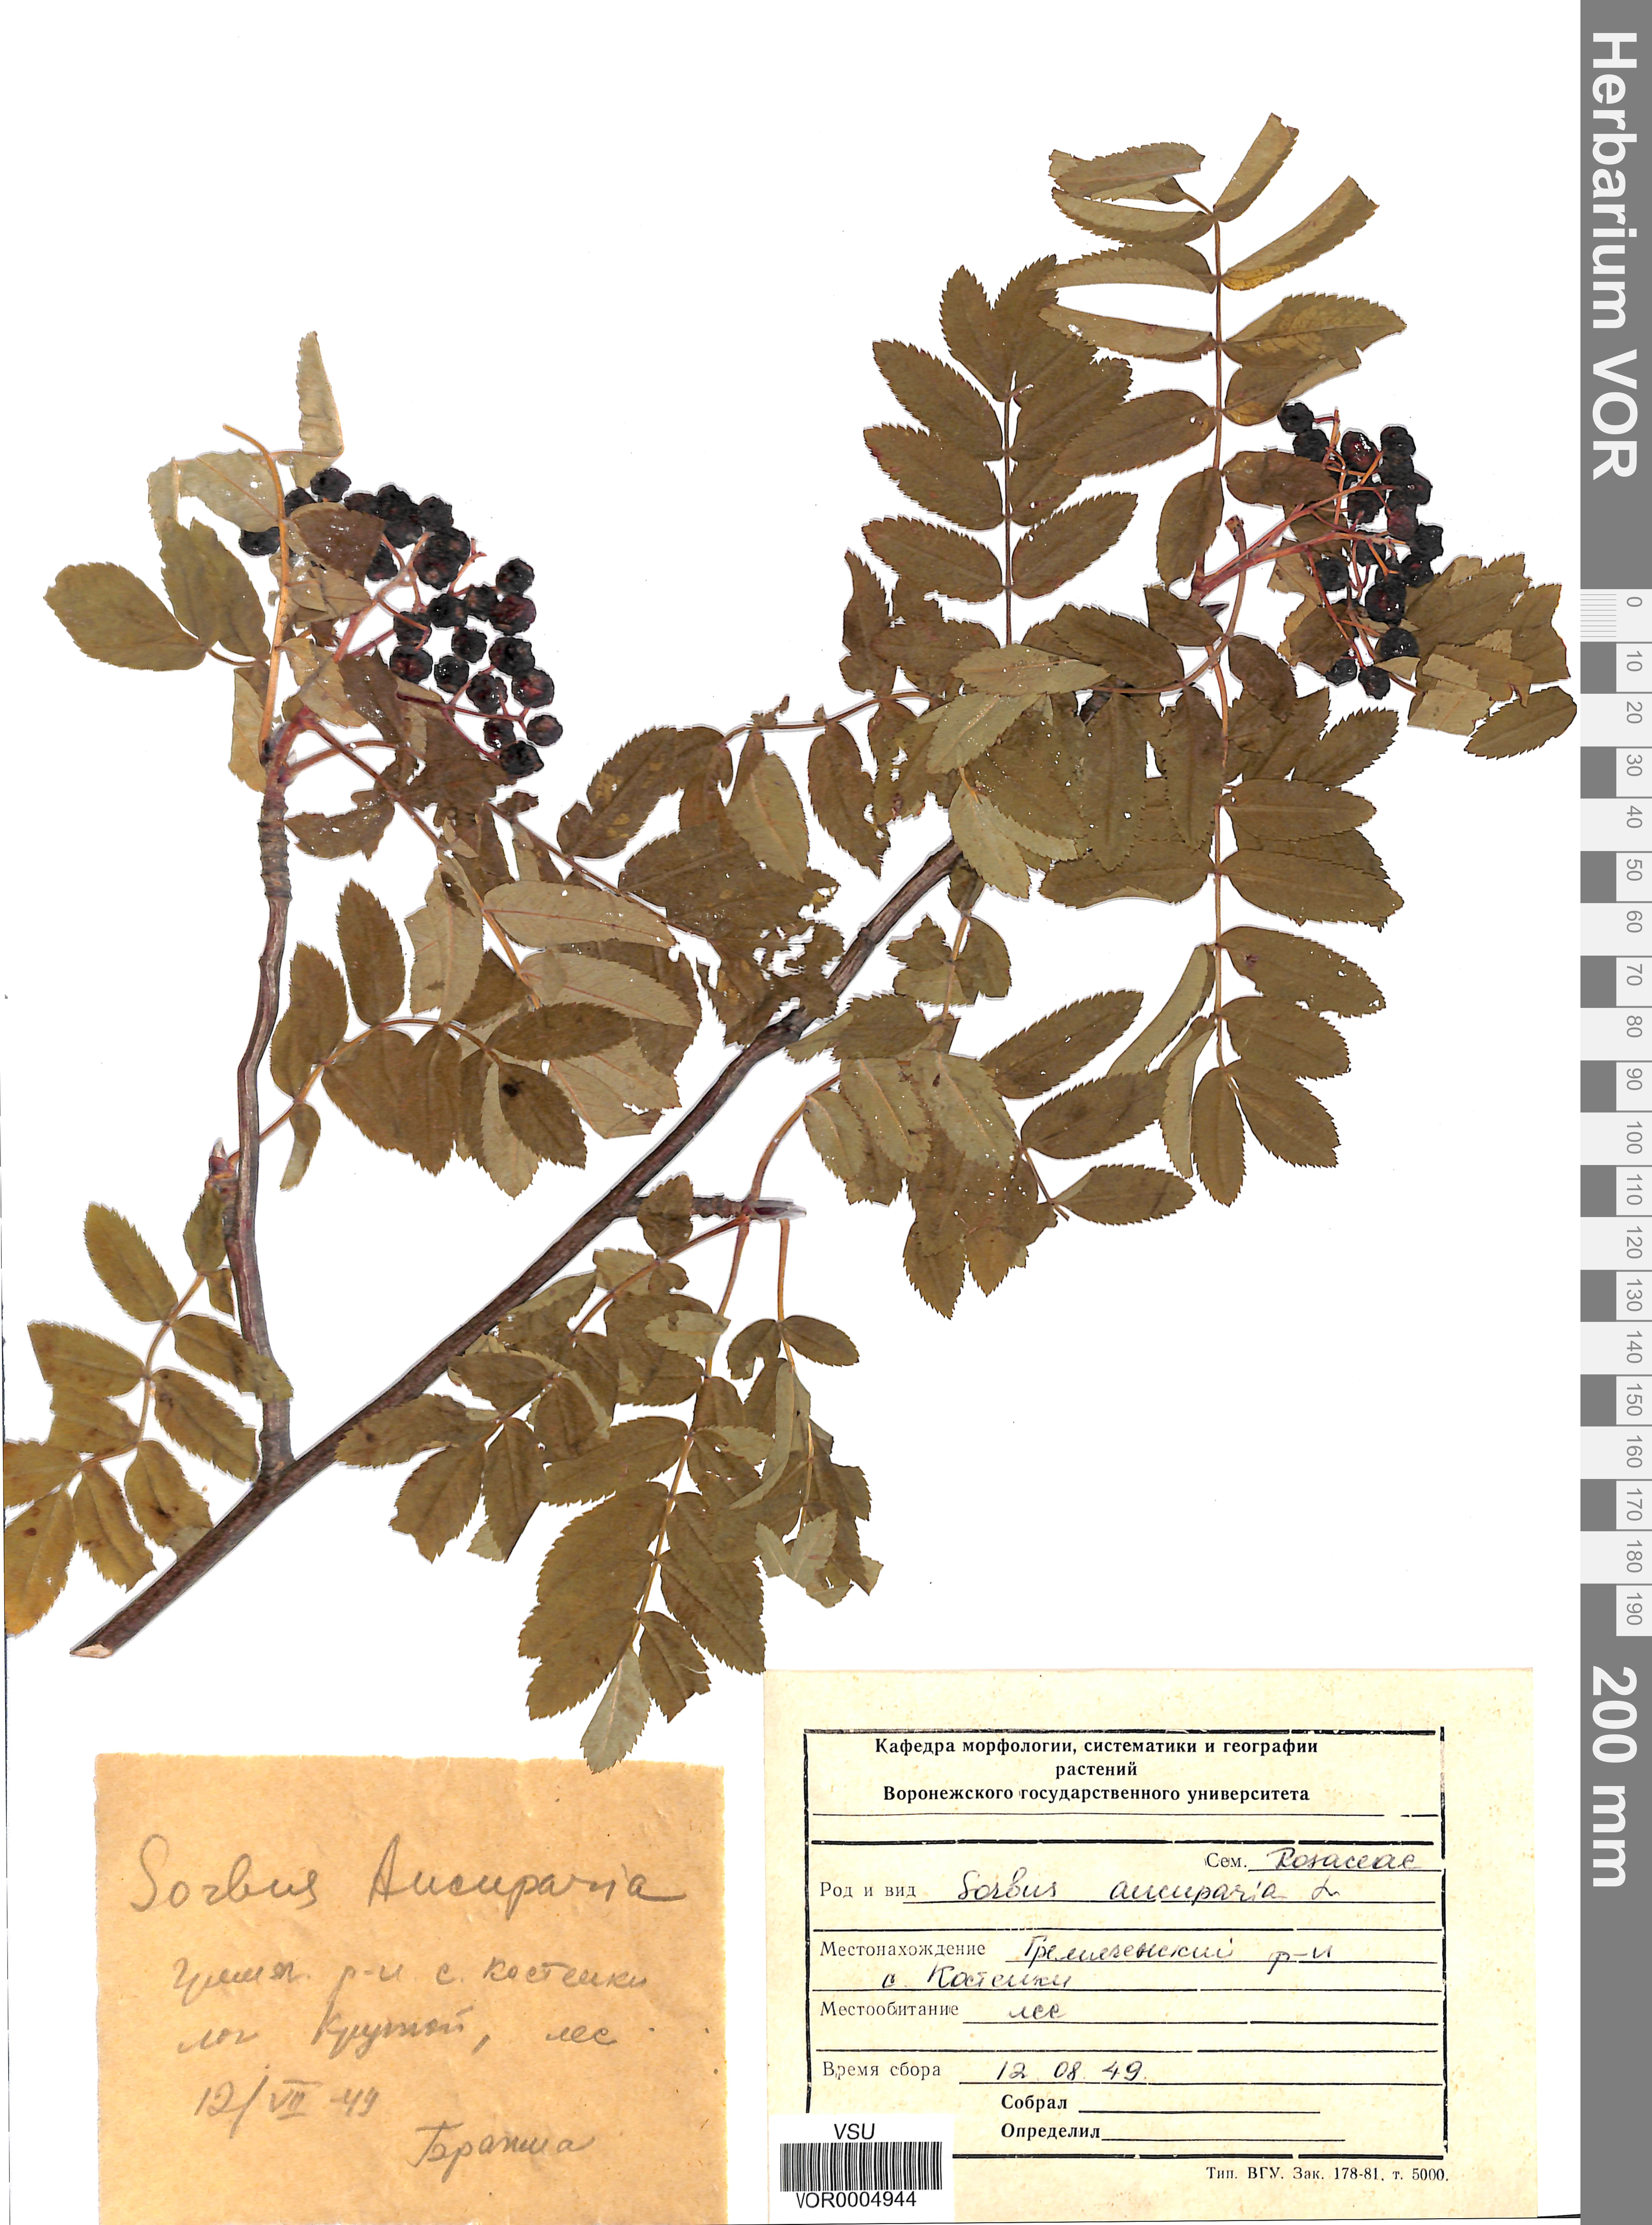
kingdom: Plantae
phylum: Tracheophyta
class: Magnoliopsida
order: Rosales
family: Rosaceae
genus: Sorbus
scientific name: Sorbus aucuparia
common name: Rowan
